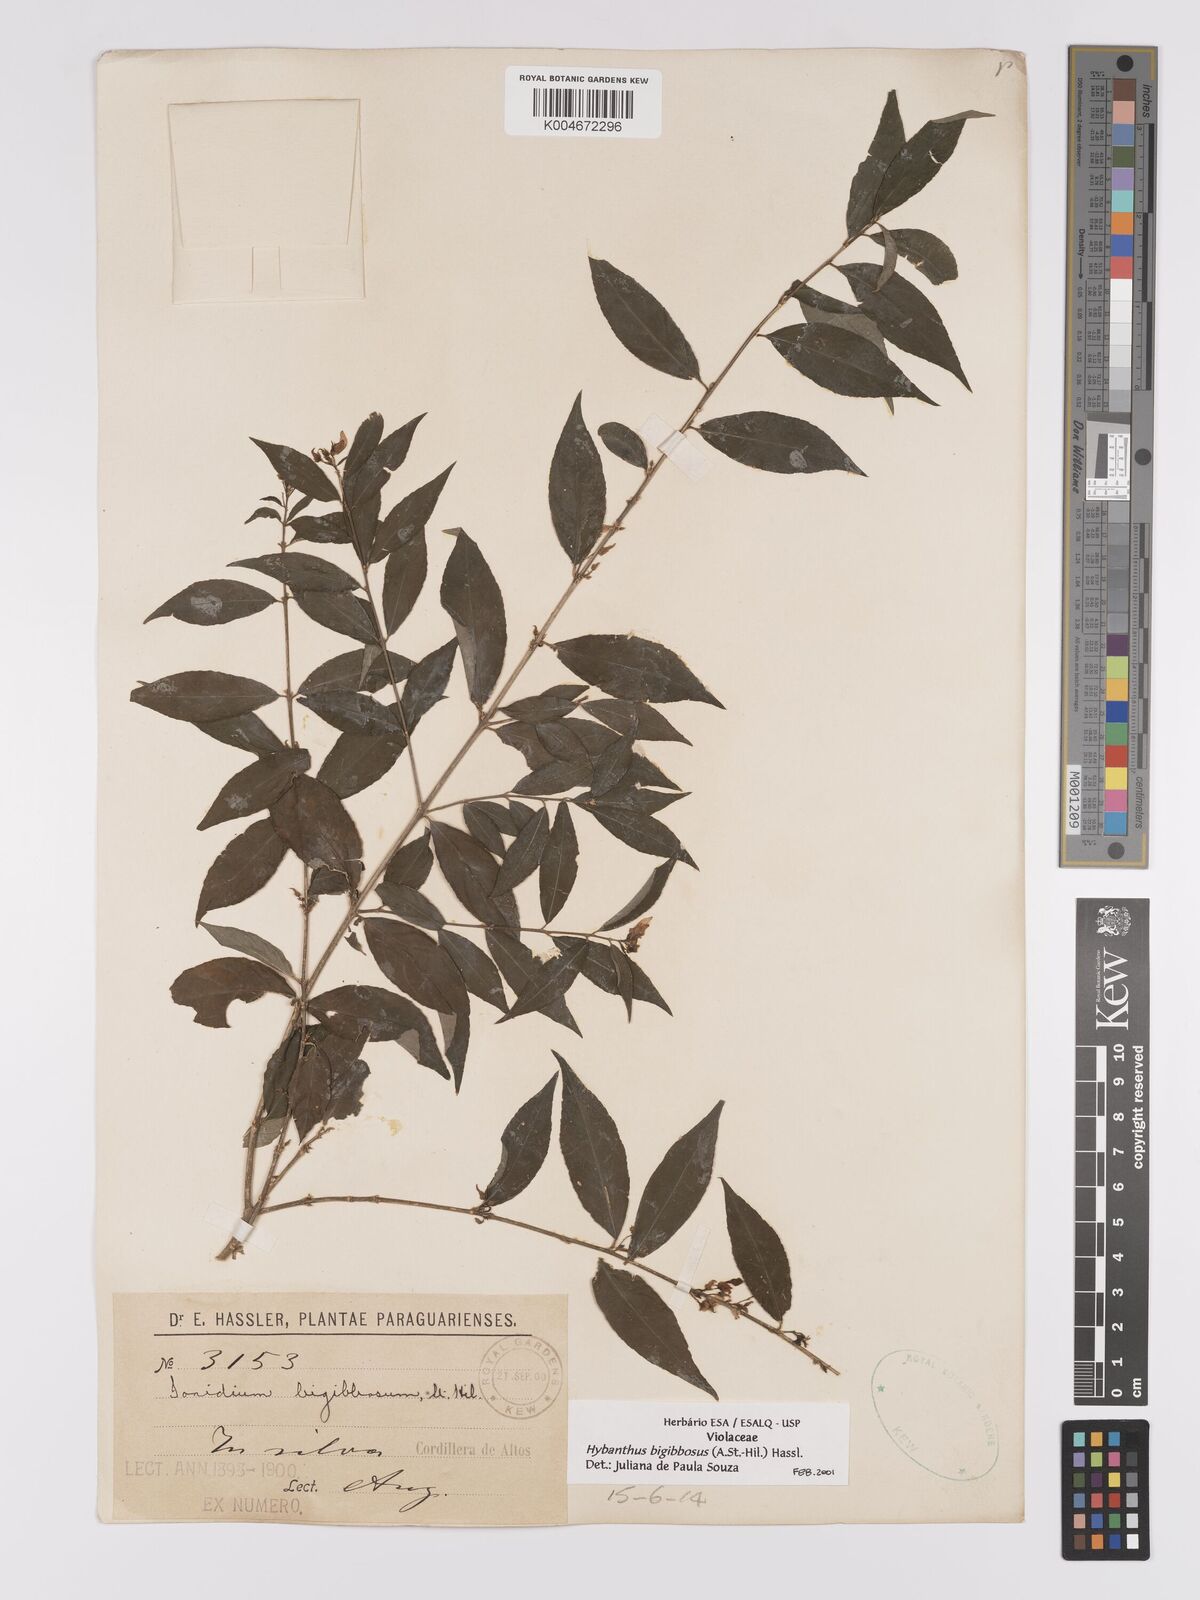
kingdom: Plantae
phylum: Tracheophyta
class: Magnoliopsida
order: Malpighiales
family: Violaceae
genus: Pombalia
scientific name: Pombalia bigibbosa
